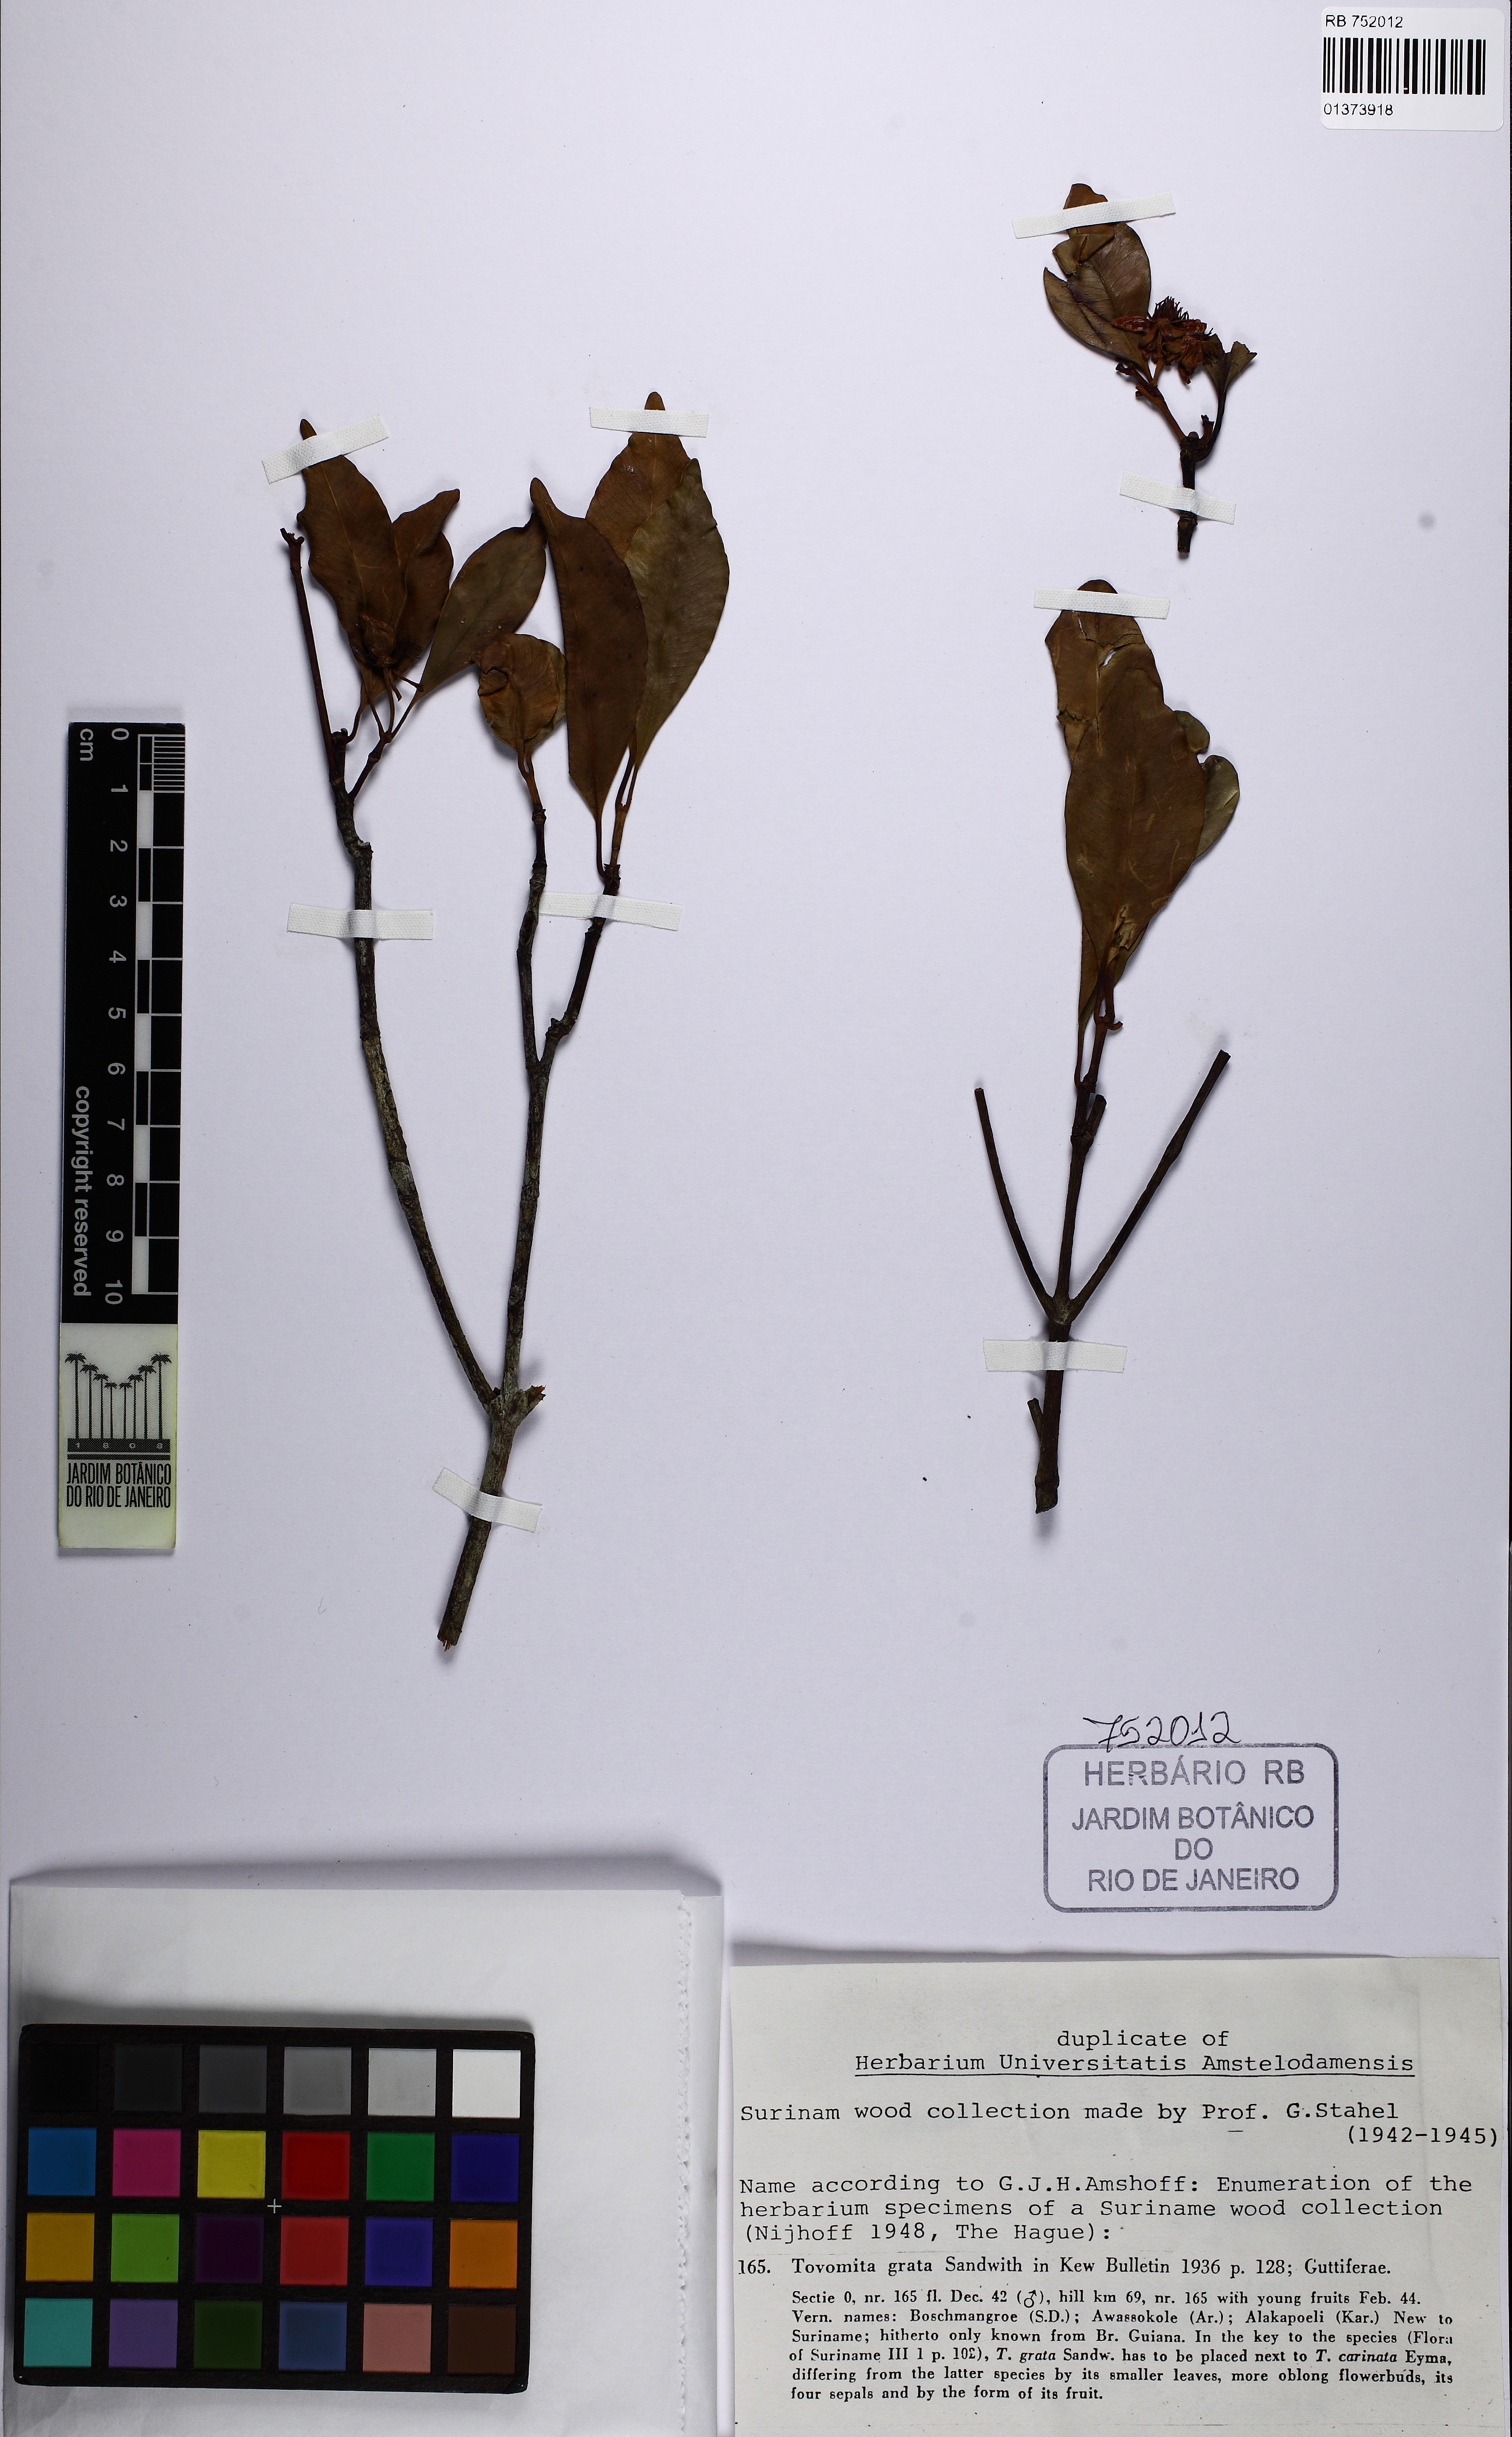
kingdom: Plantae
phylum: Tracheophyta
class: Magnoliopsida
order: Malpighiales
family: Clusiaceae
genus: Tovomita
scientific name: Tovomita grata
